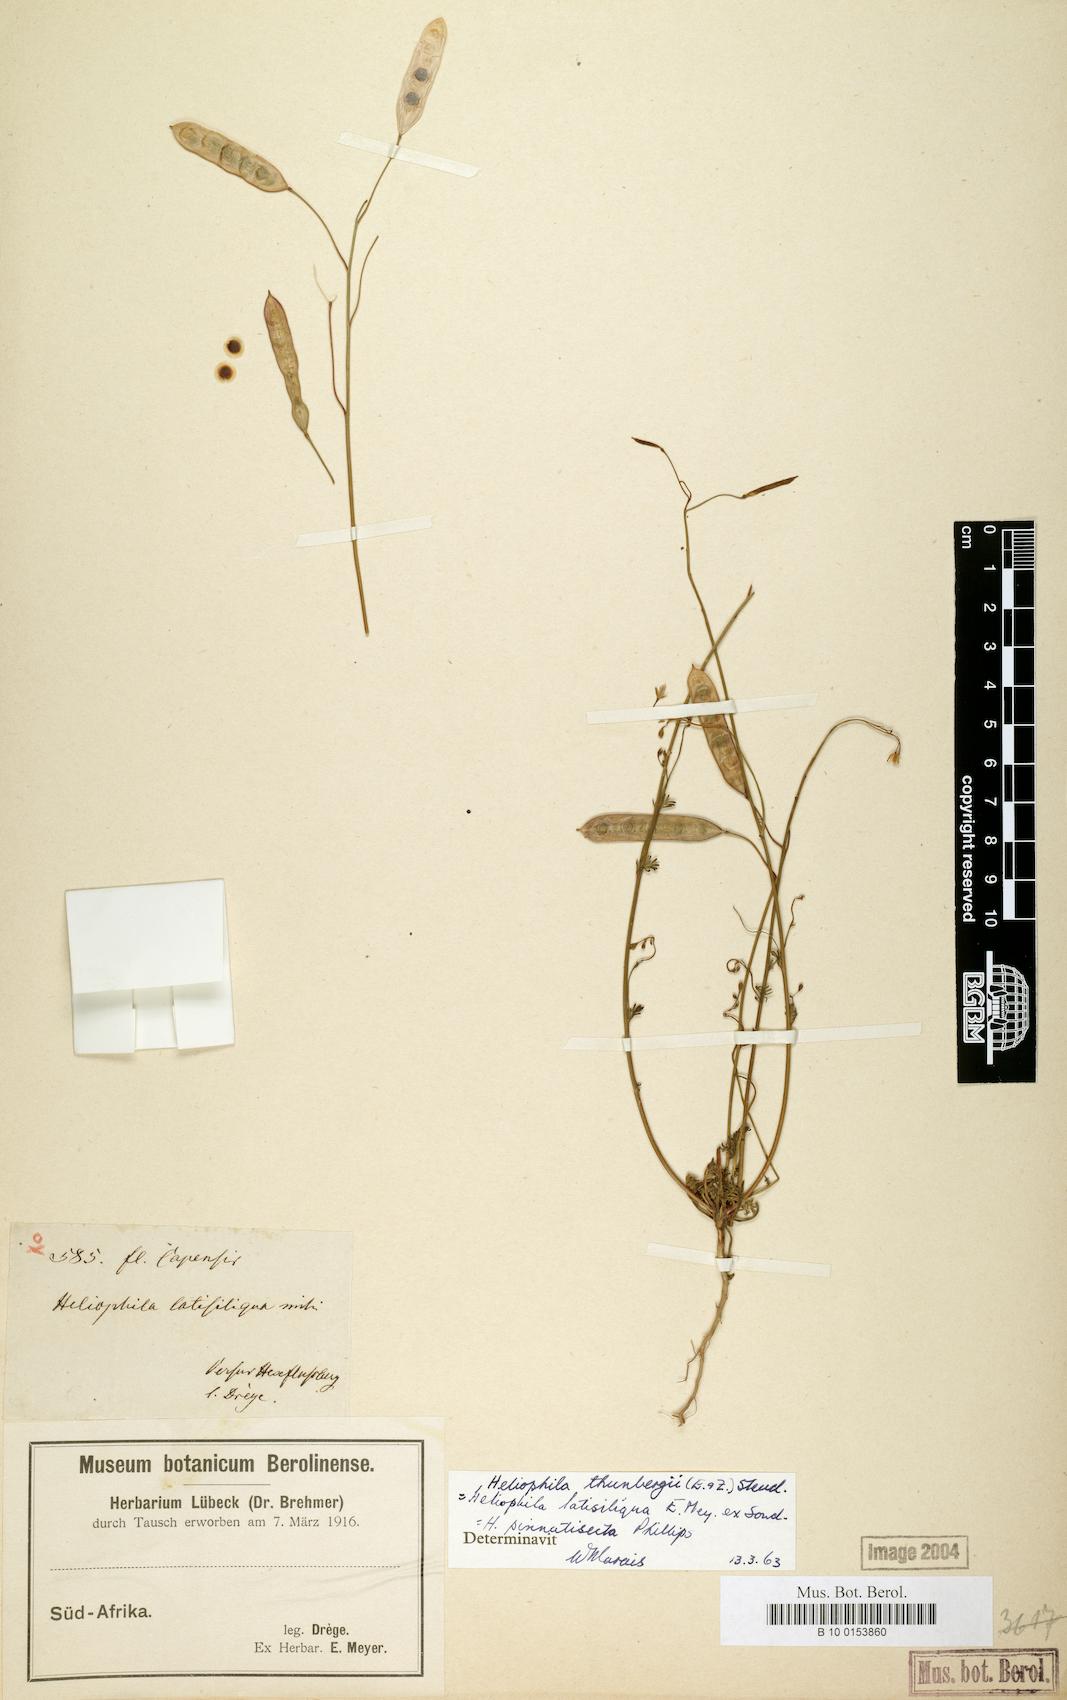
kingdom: Plantae
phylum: Tracheophyta
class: Magnoliopsida
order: Brassicales
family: Brassicaceae
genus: Heliophila
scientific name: Heliophila thunbergii
